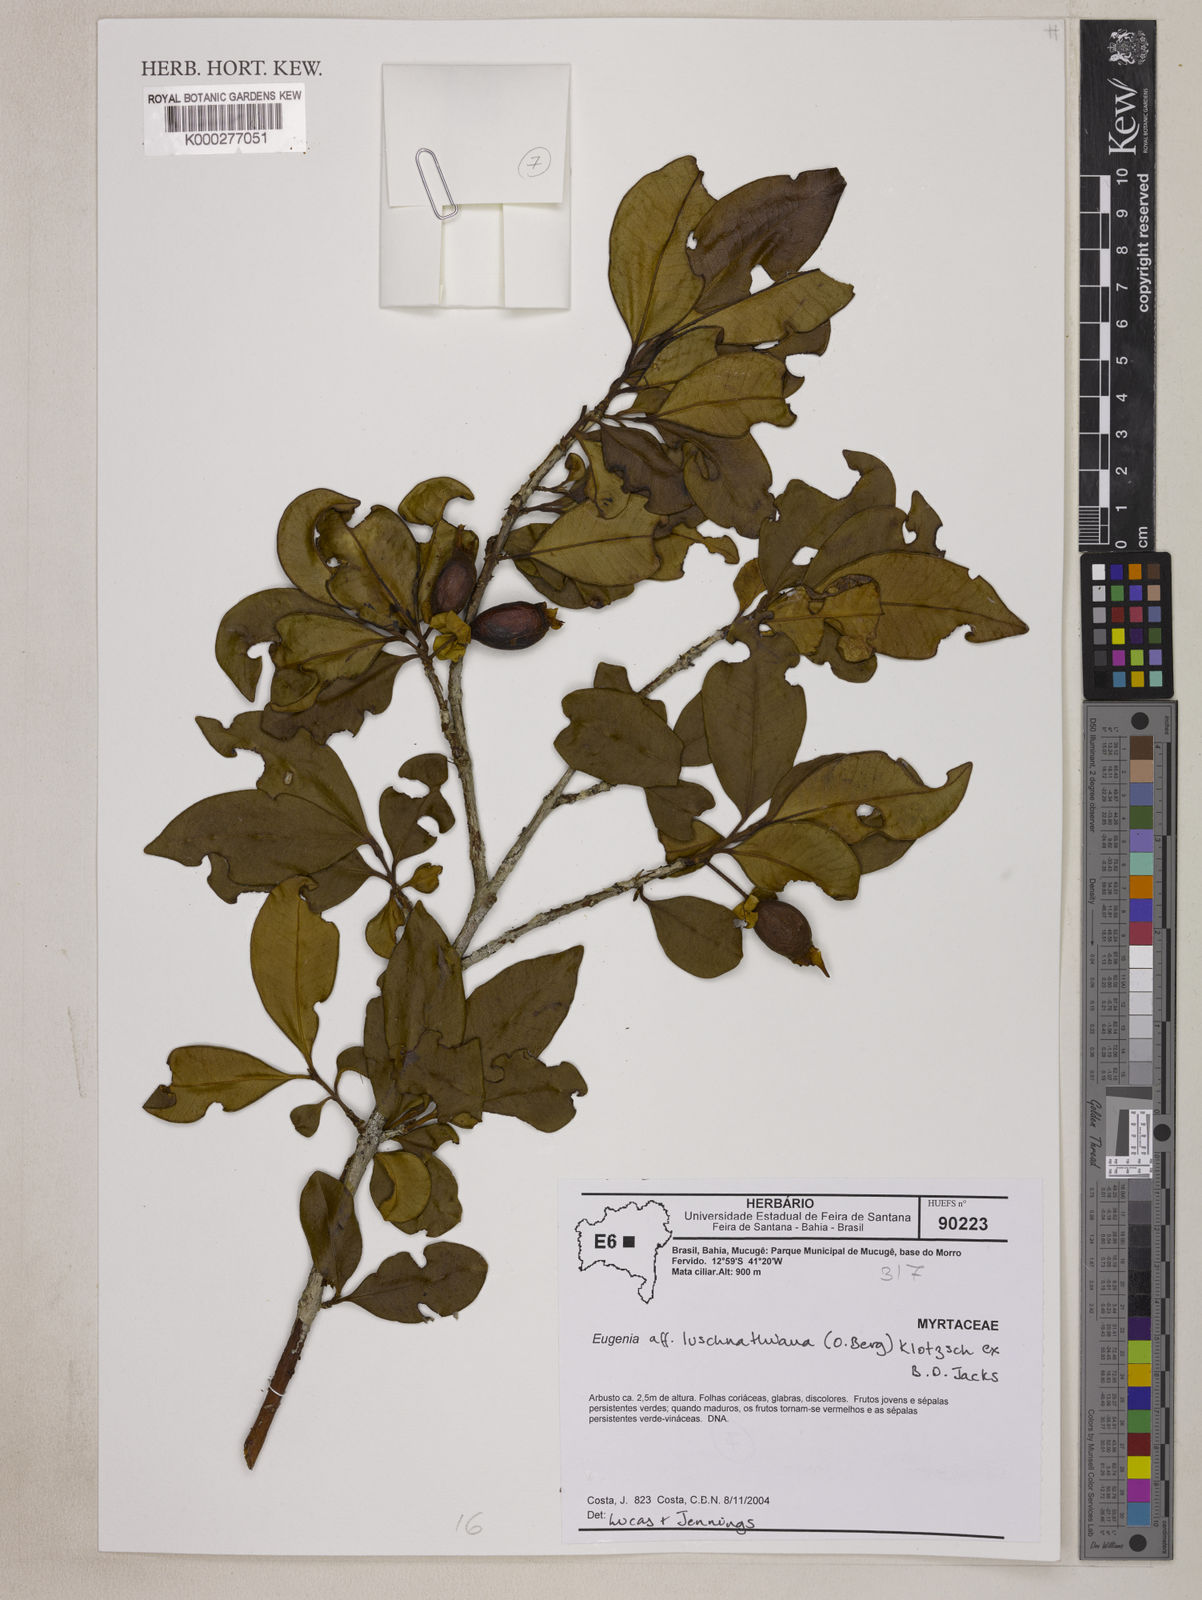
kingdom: Plantae
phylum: Tracheophyta
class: Magnoliopsida
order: Myrtales
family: Myrtaceae
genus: Eugenia
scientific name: Eugenia involucrata
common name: Cherry-of-the-rio grande
